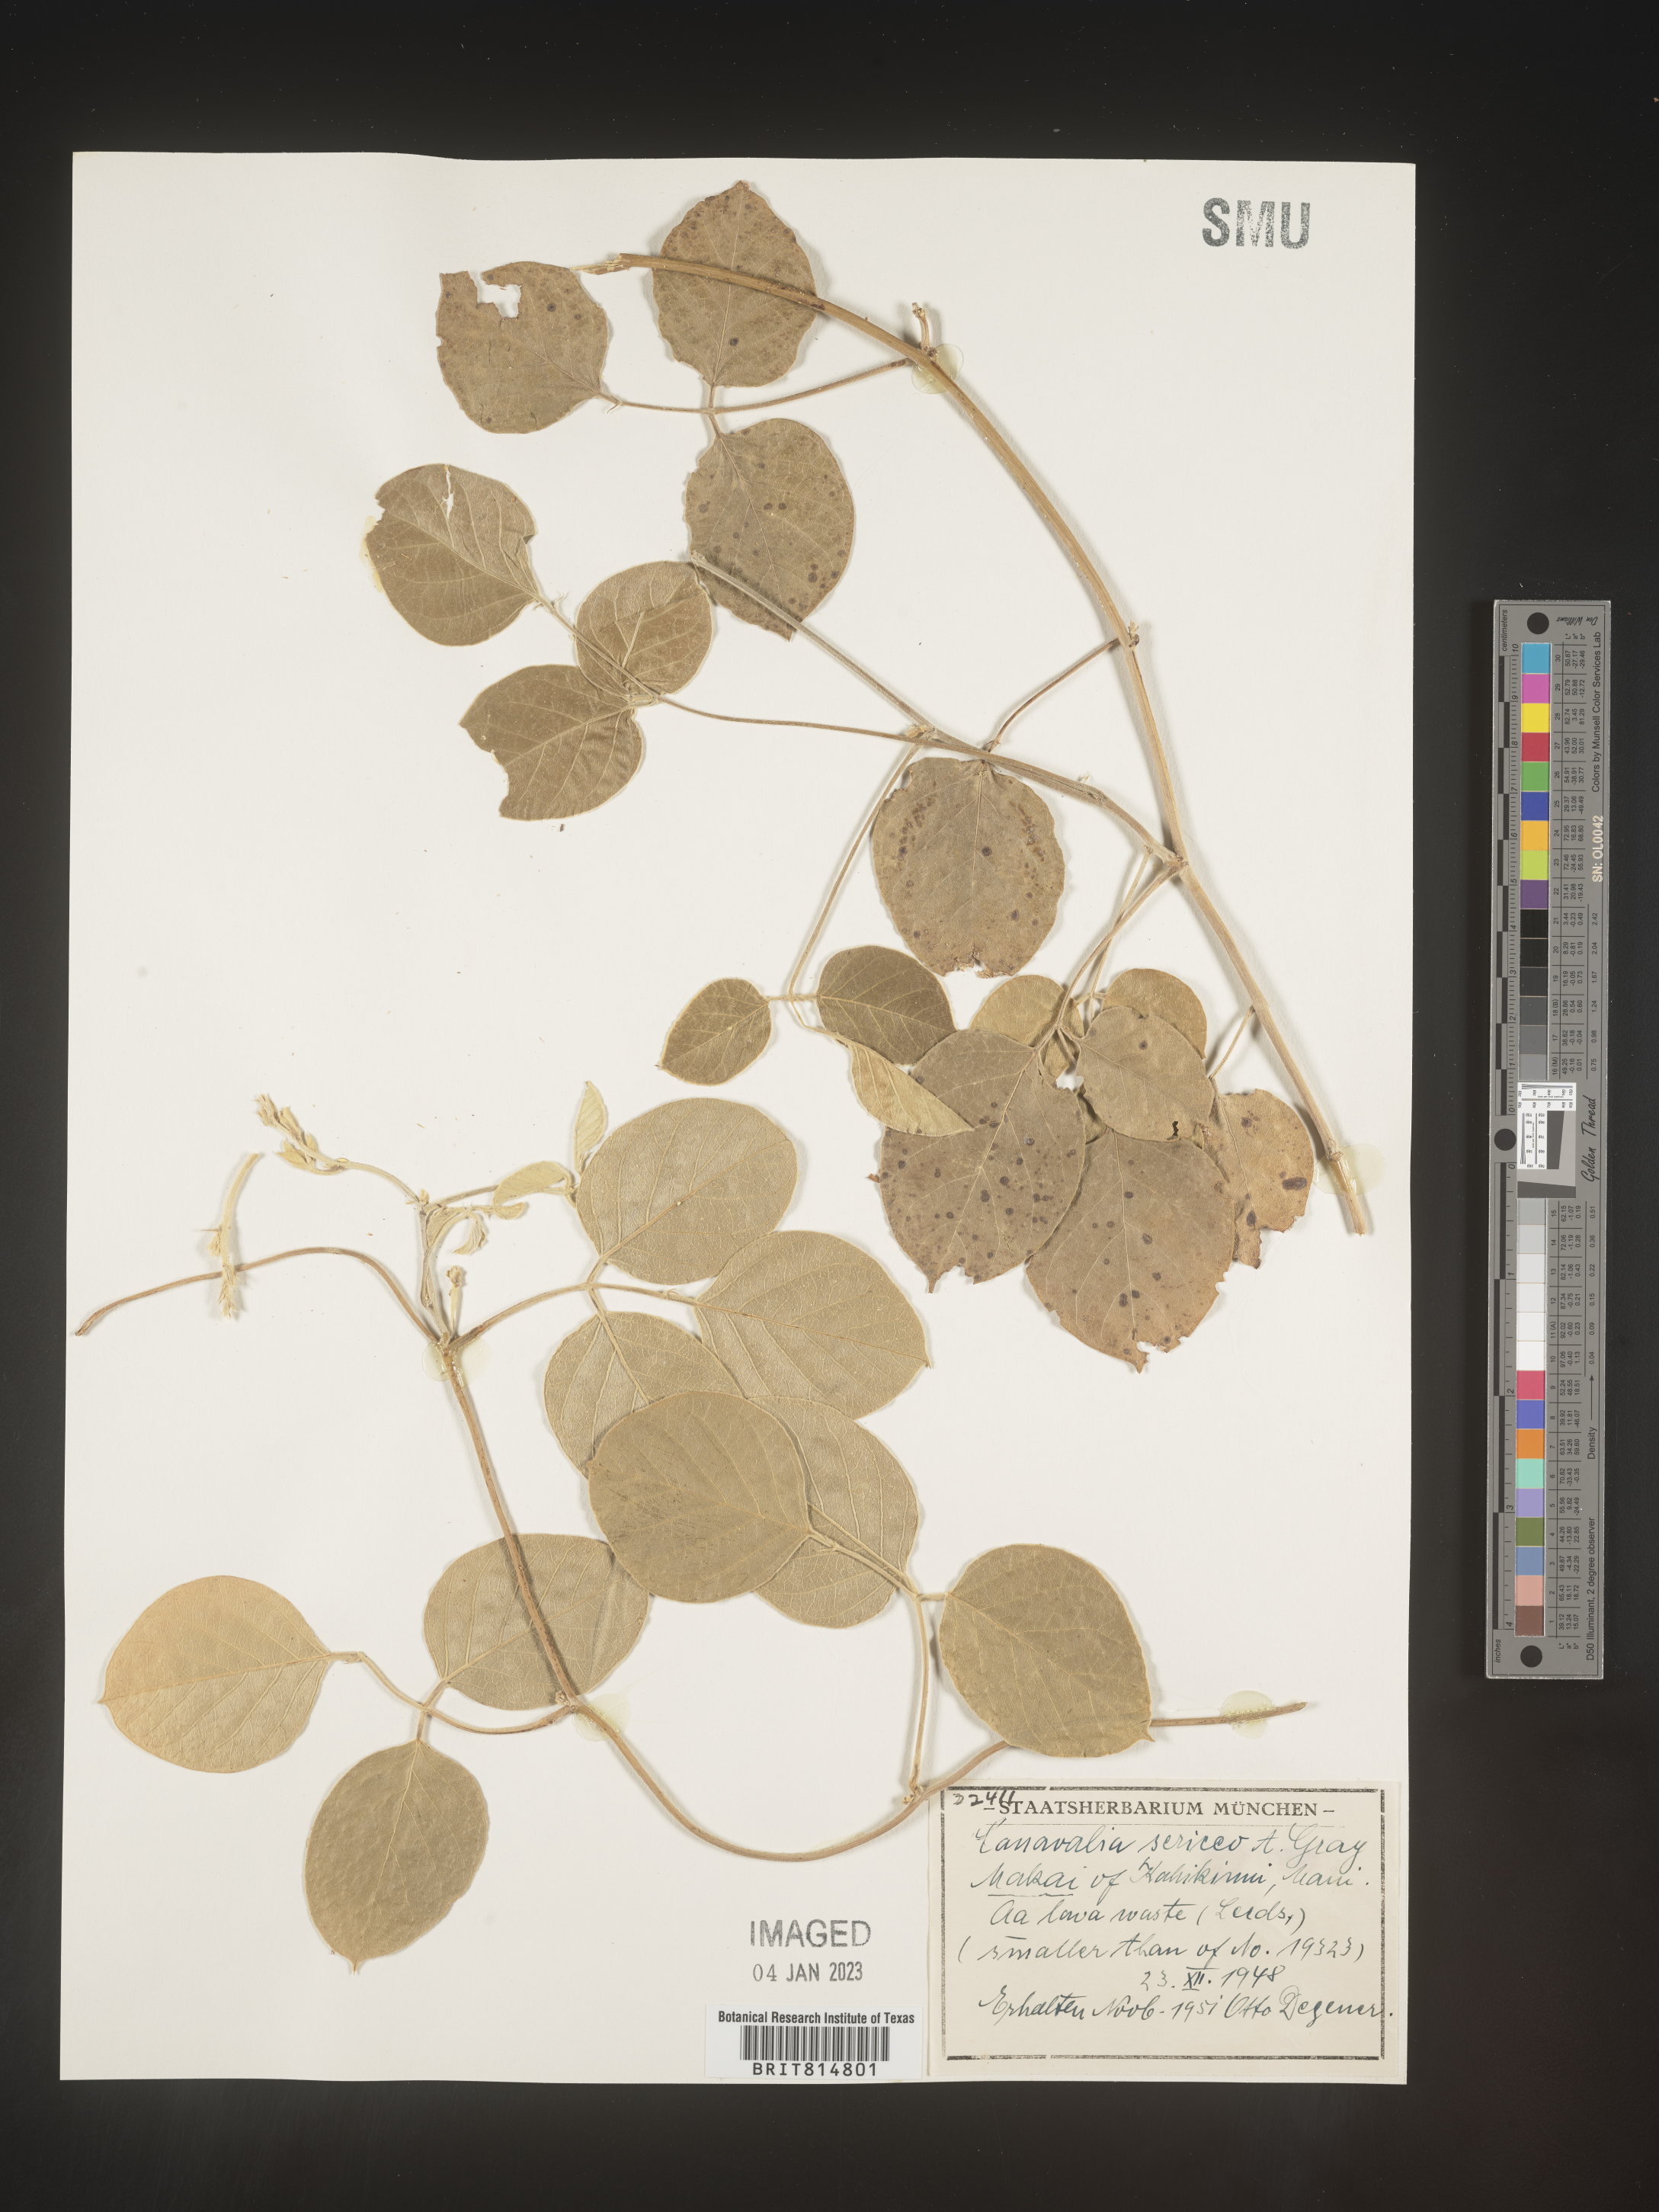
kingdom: Plantae
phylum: Tracheophyta
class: Magnoliopsida
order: Fabales
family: Fabaceae
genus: Canavalia
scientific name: Canavalia
